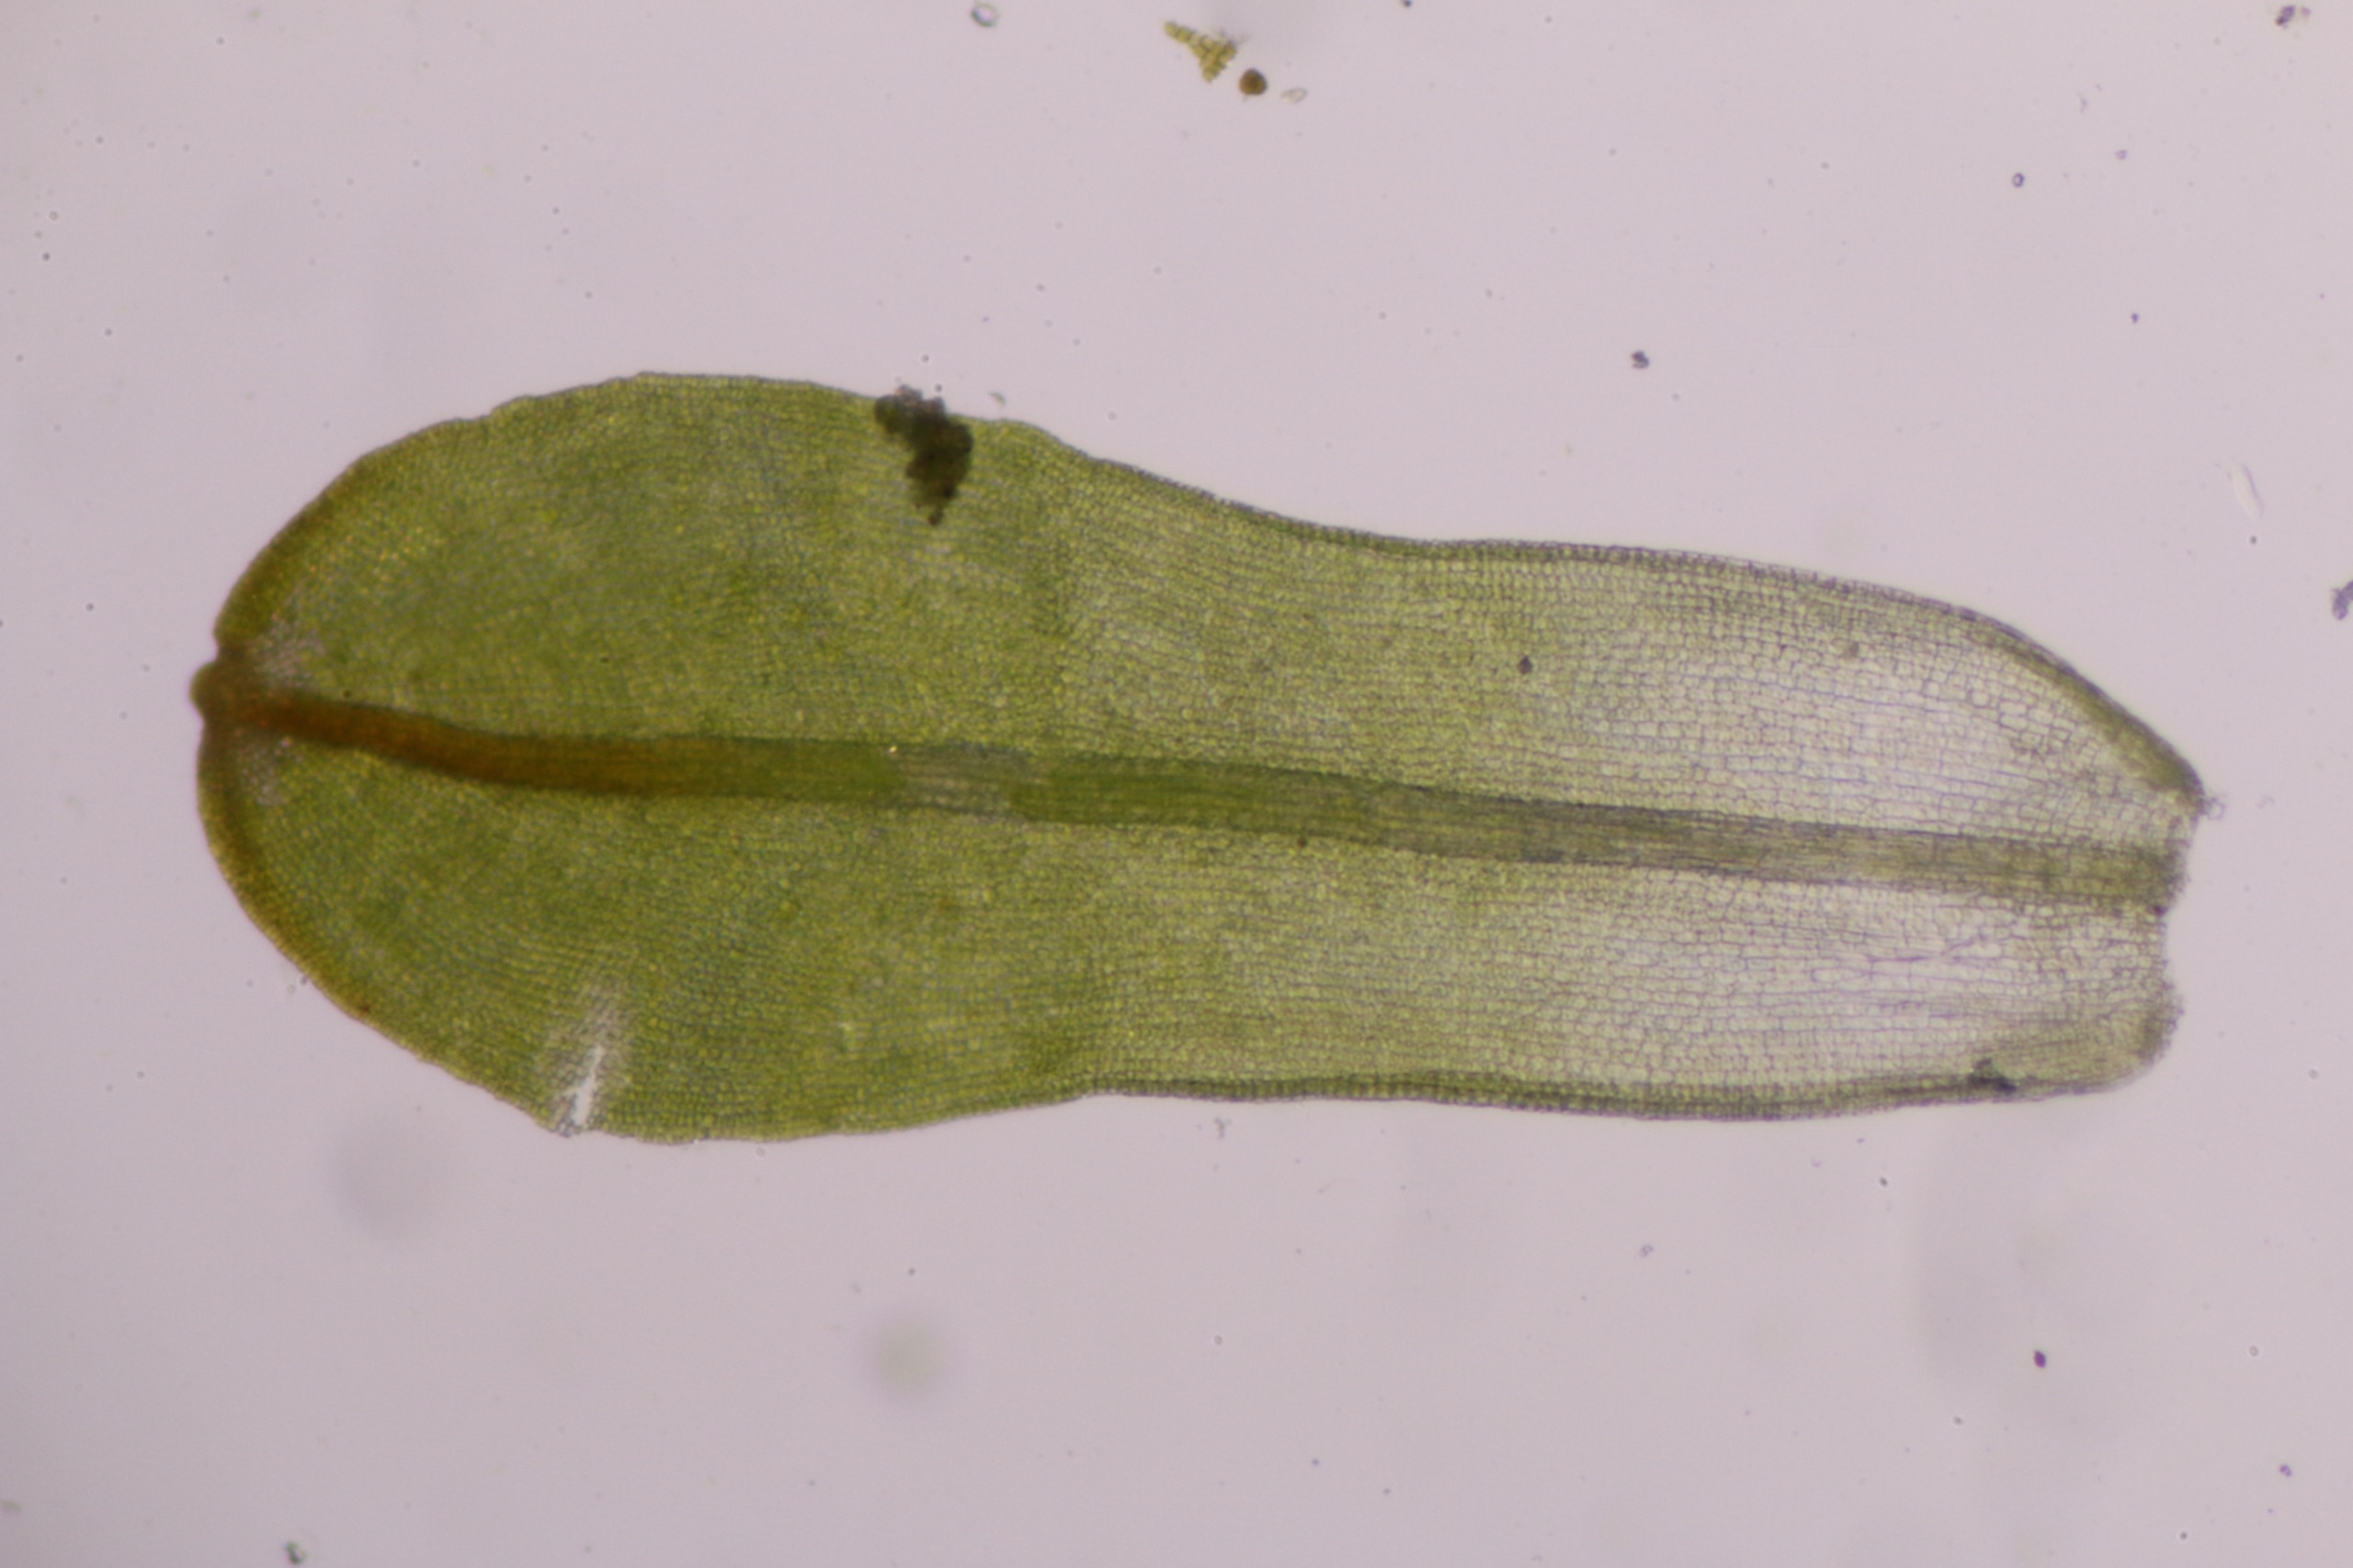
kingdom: Plantae
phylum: Bryophyta
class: Bryopsida
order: Pottiales
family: Pottiaceae
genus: Syntrichia
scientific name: Syntrichia latifolia
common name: Butbladet hårstjerne
